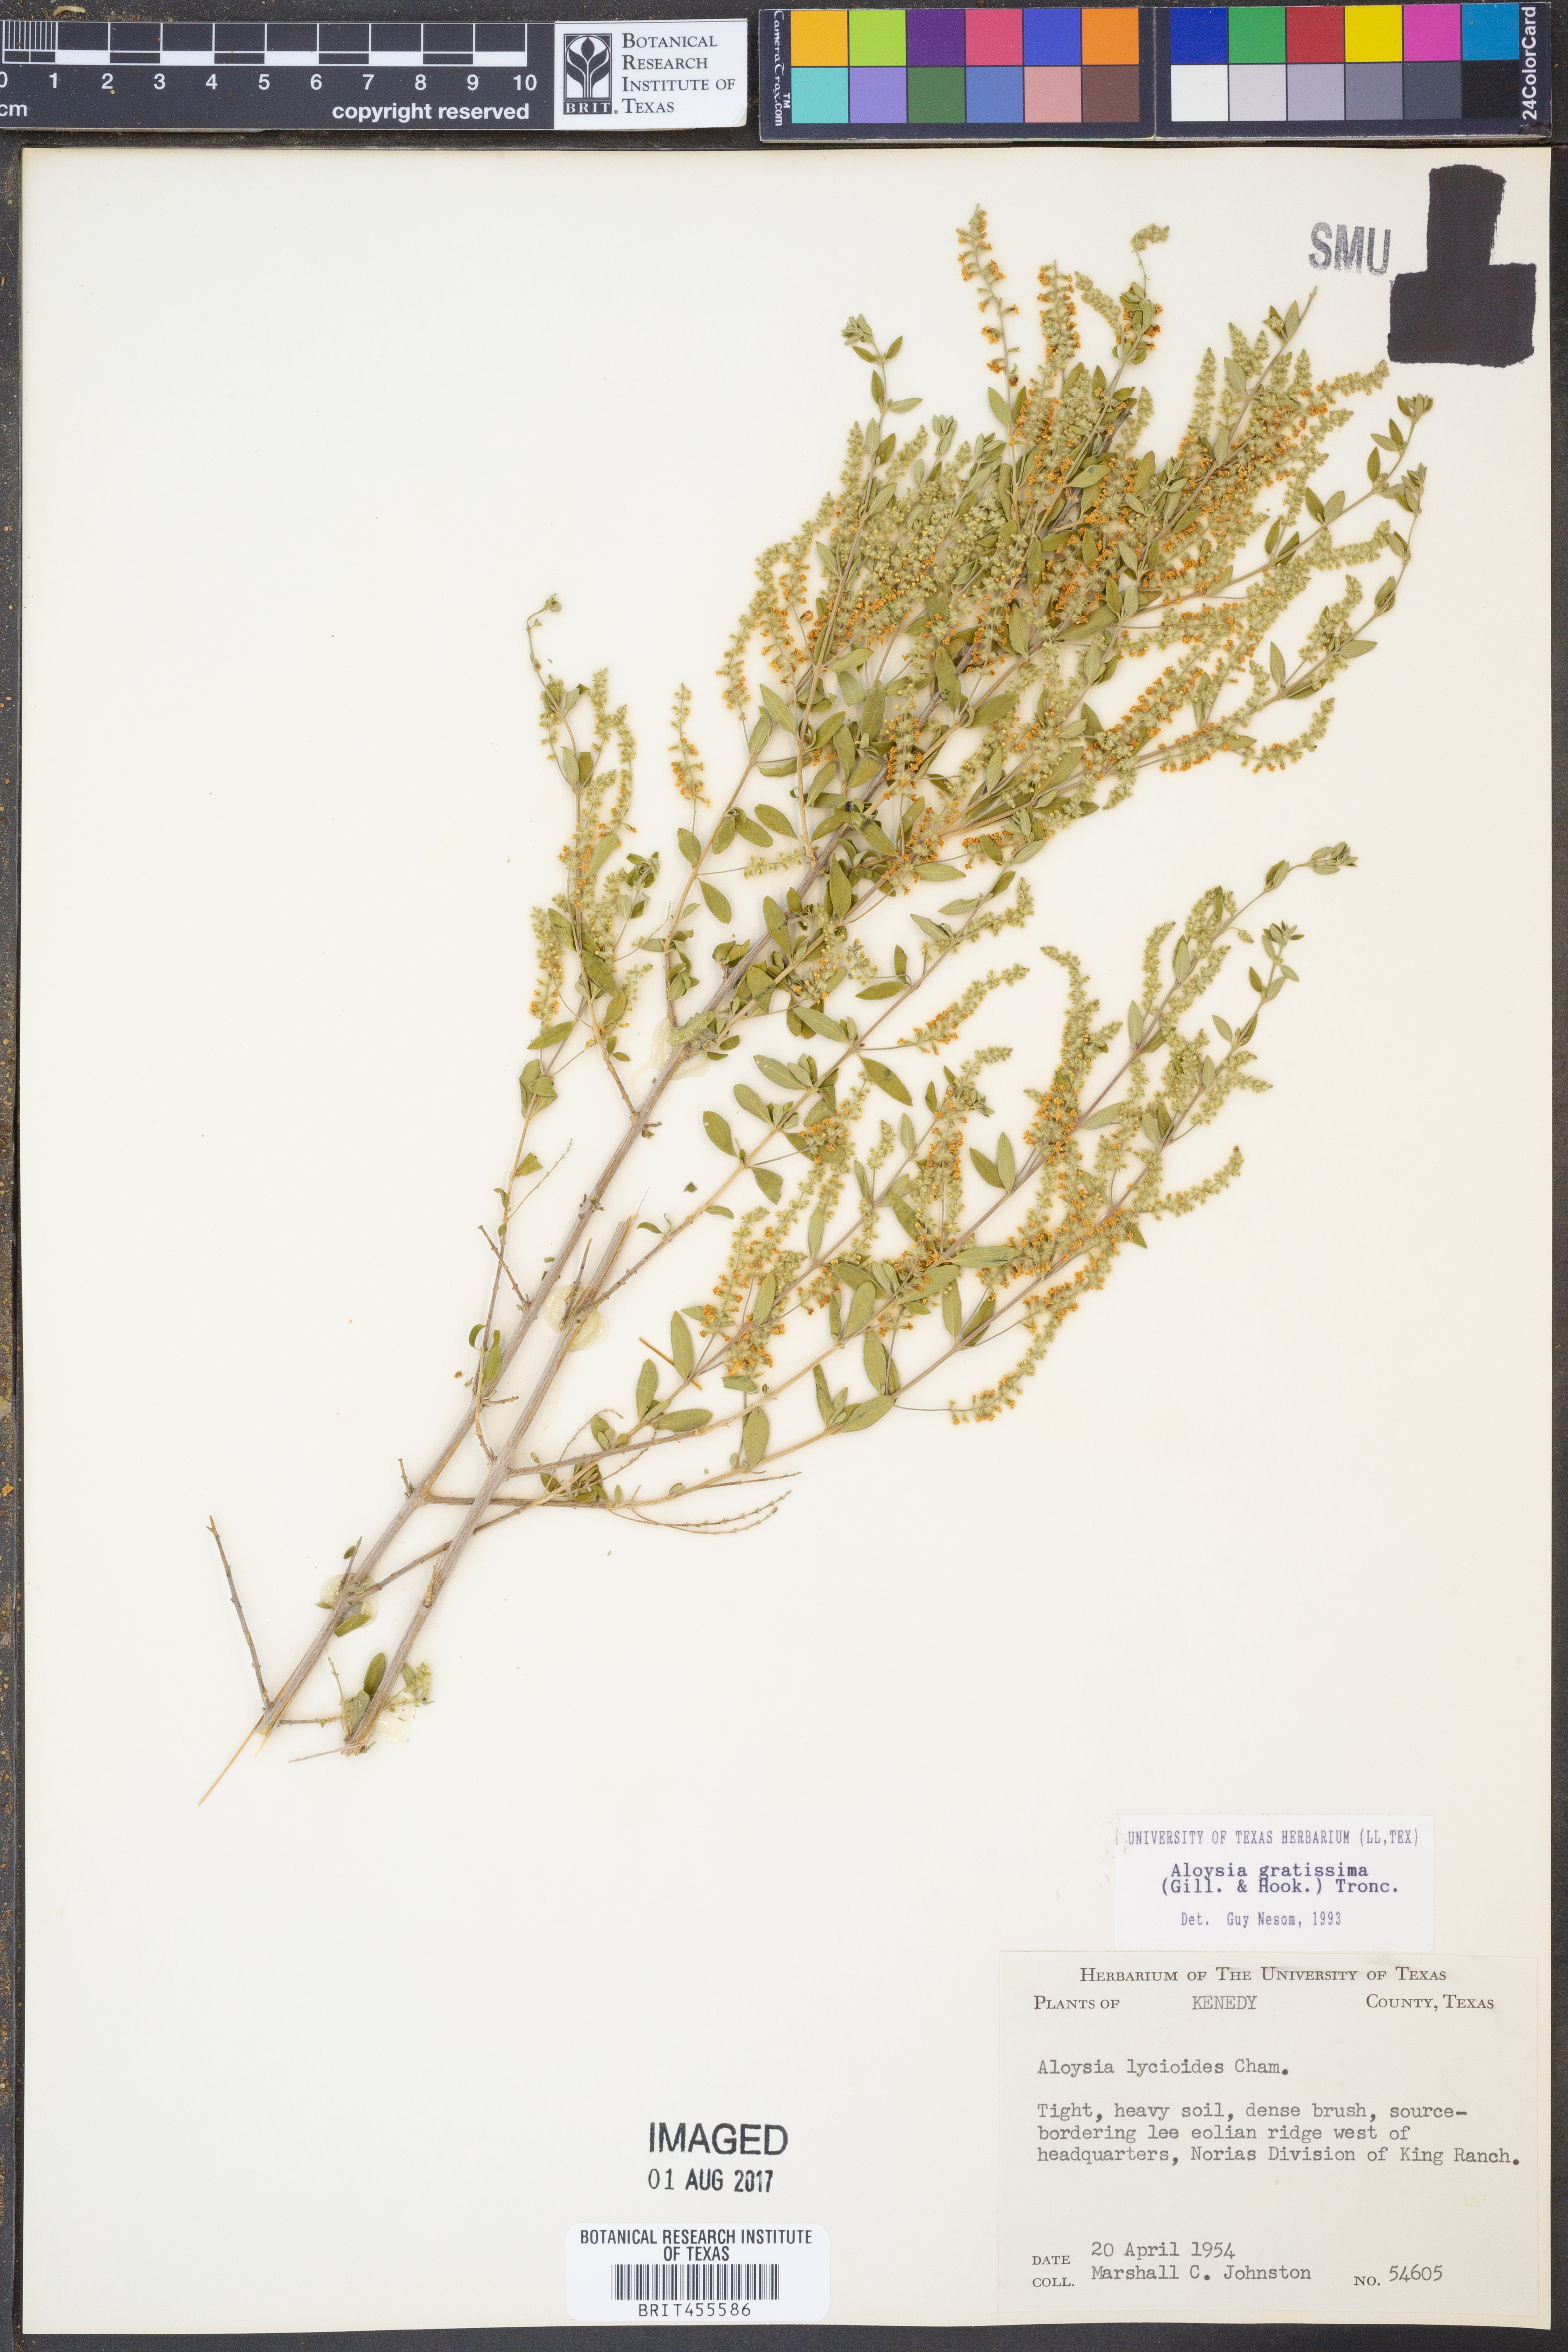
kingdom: Plantae
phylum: Tracheophyta
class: Magnoliopsida
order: Lamiales
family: Verbenaceae
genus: Aloysia
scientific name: Aloysia gratissima
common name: Common bee-brush
